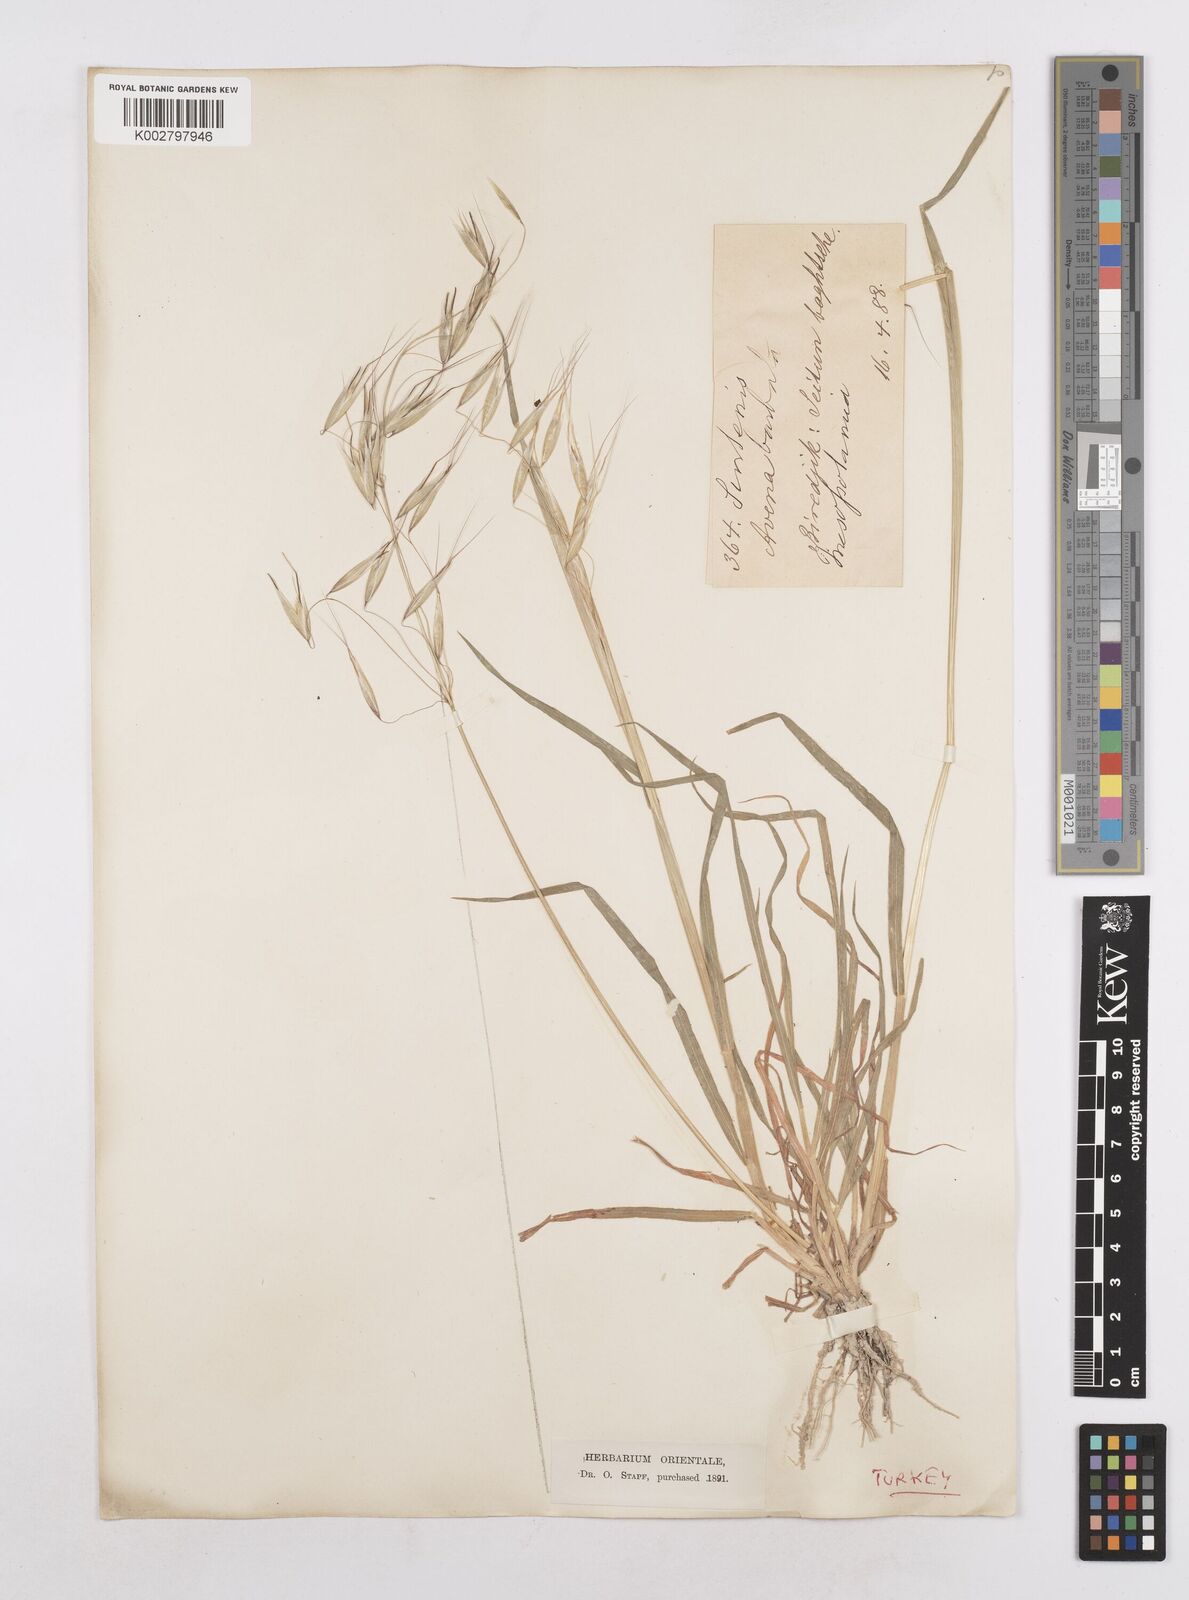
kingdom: Plantae
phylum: Tracheophyta
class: Liliopsida
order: Poales
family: Poaceae
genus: Avena
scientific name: Avena
